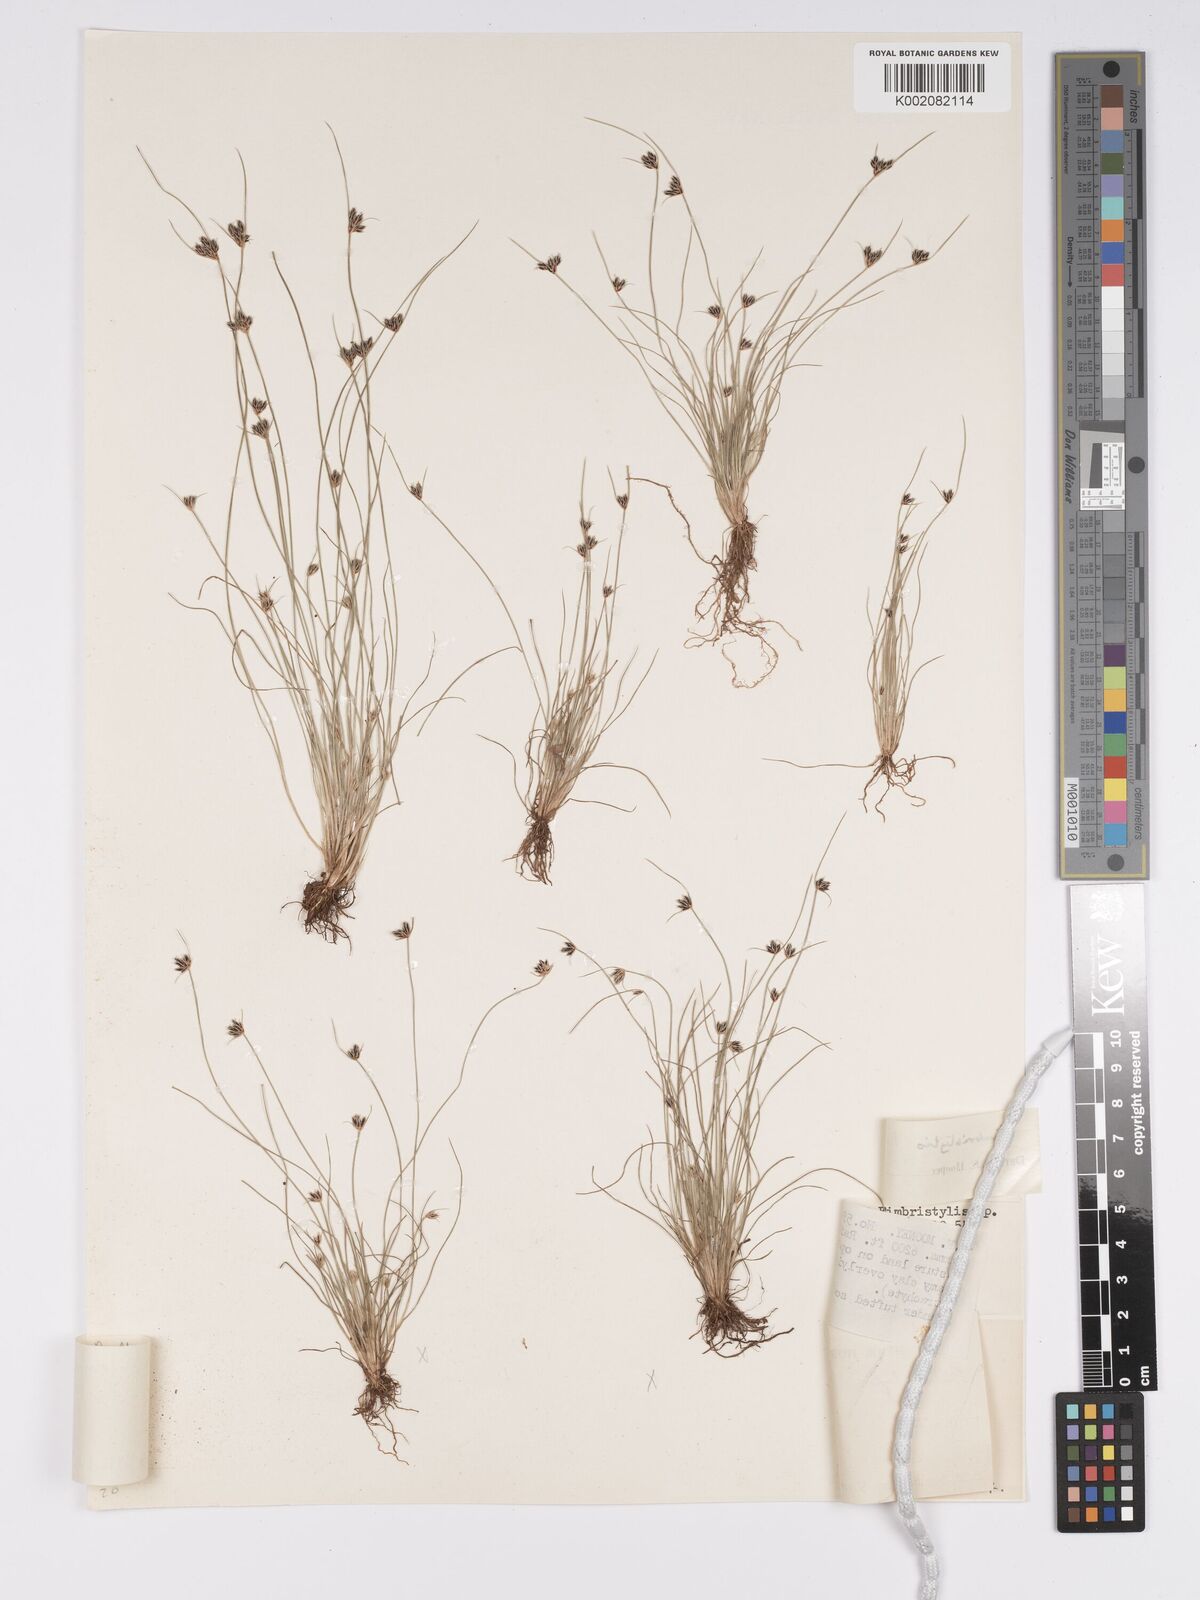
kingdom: Plantae
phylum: Tracheophyta
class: Liliopsida
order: Poales
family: Cyperaceae
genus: Bulbostylis
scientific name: Bulbostylis oligostachys
